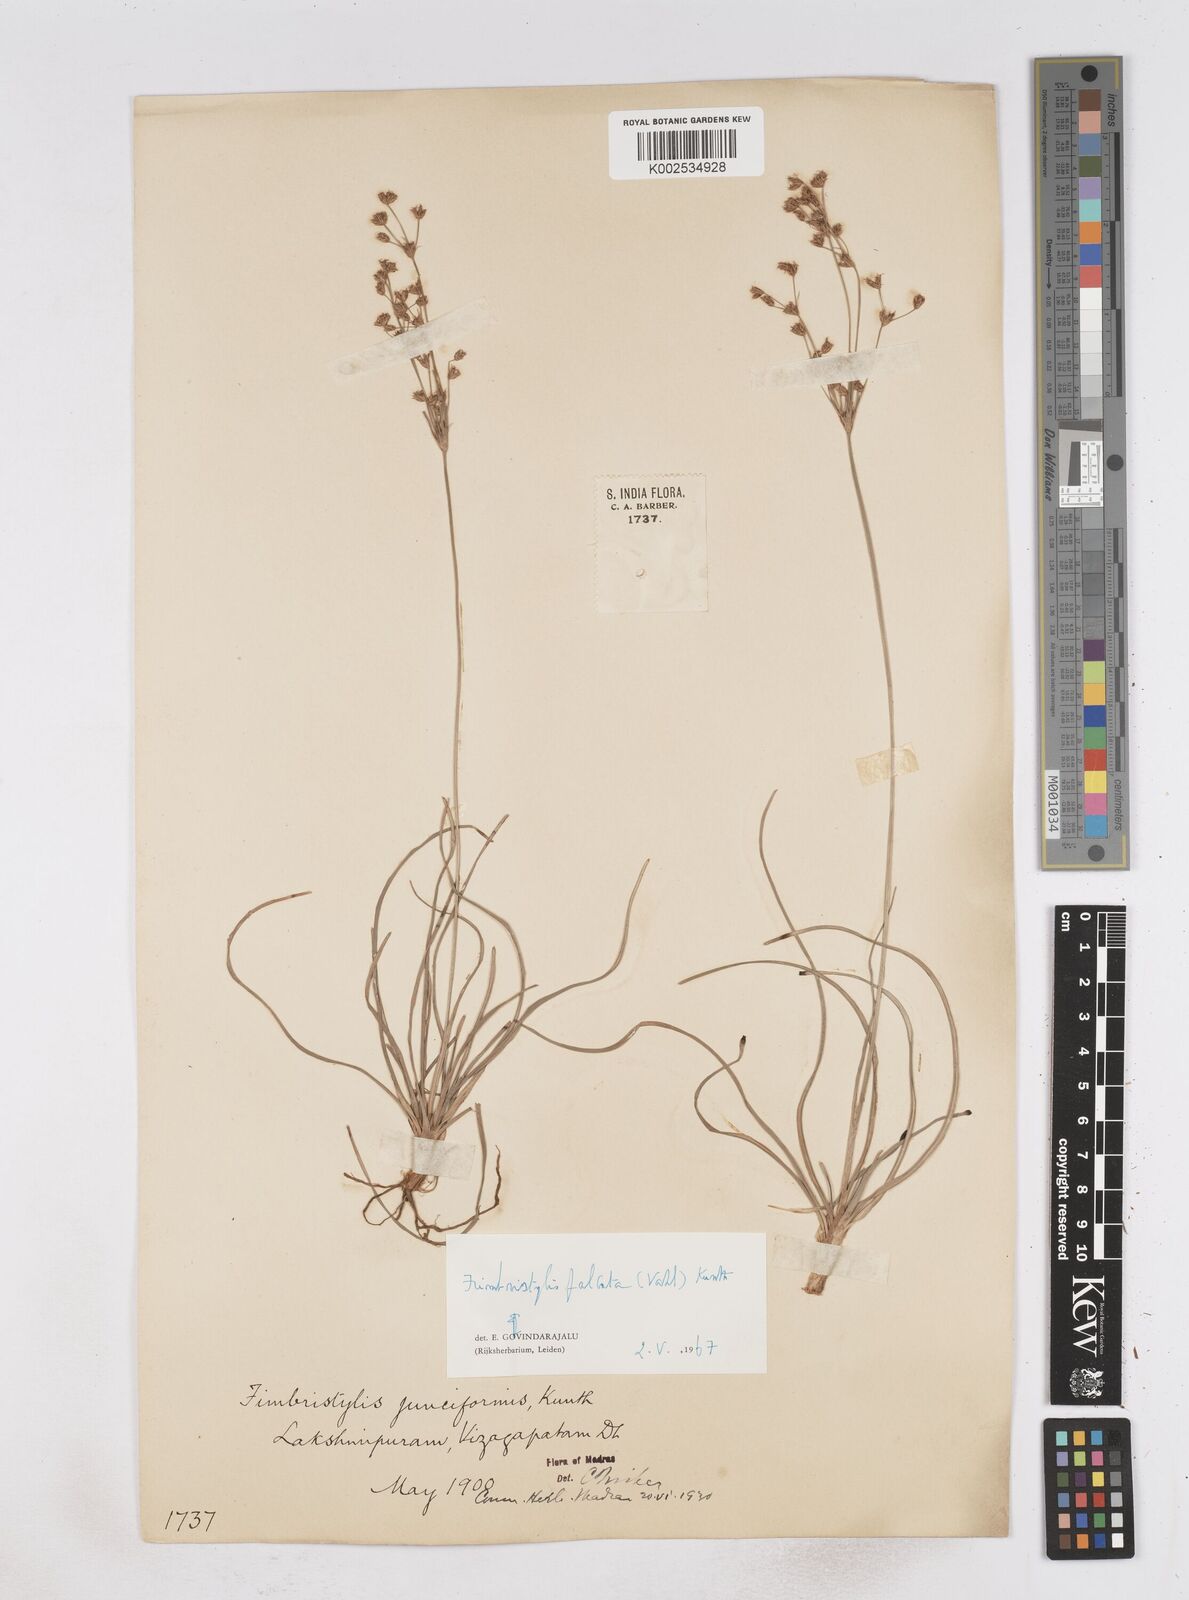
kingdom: Plantae
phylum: Tracheophyta
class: Liliopsida
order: Poales
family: Cyperaceae
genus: Fimbristylis
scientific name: Fimbristylis falcata
